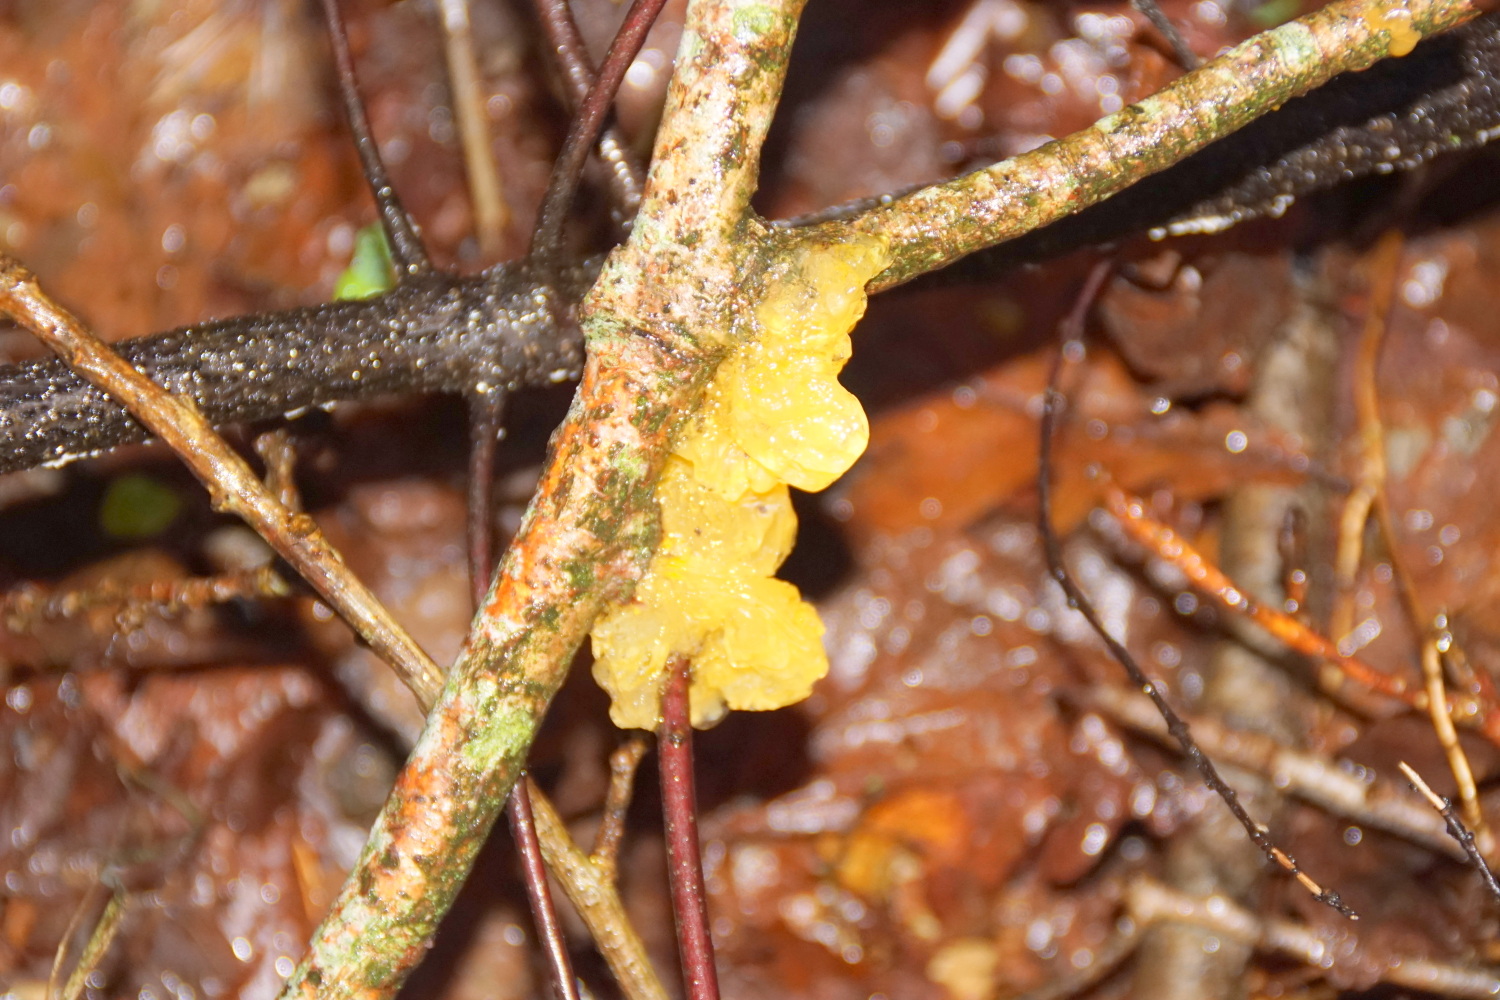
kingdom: Fungi
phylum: Basidiomycota
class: Tremellomycetes
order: Tremellales
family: Tremellaceae
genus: Tremella
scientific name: Tremella mesenterica
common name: gul bævresvamp
